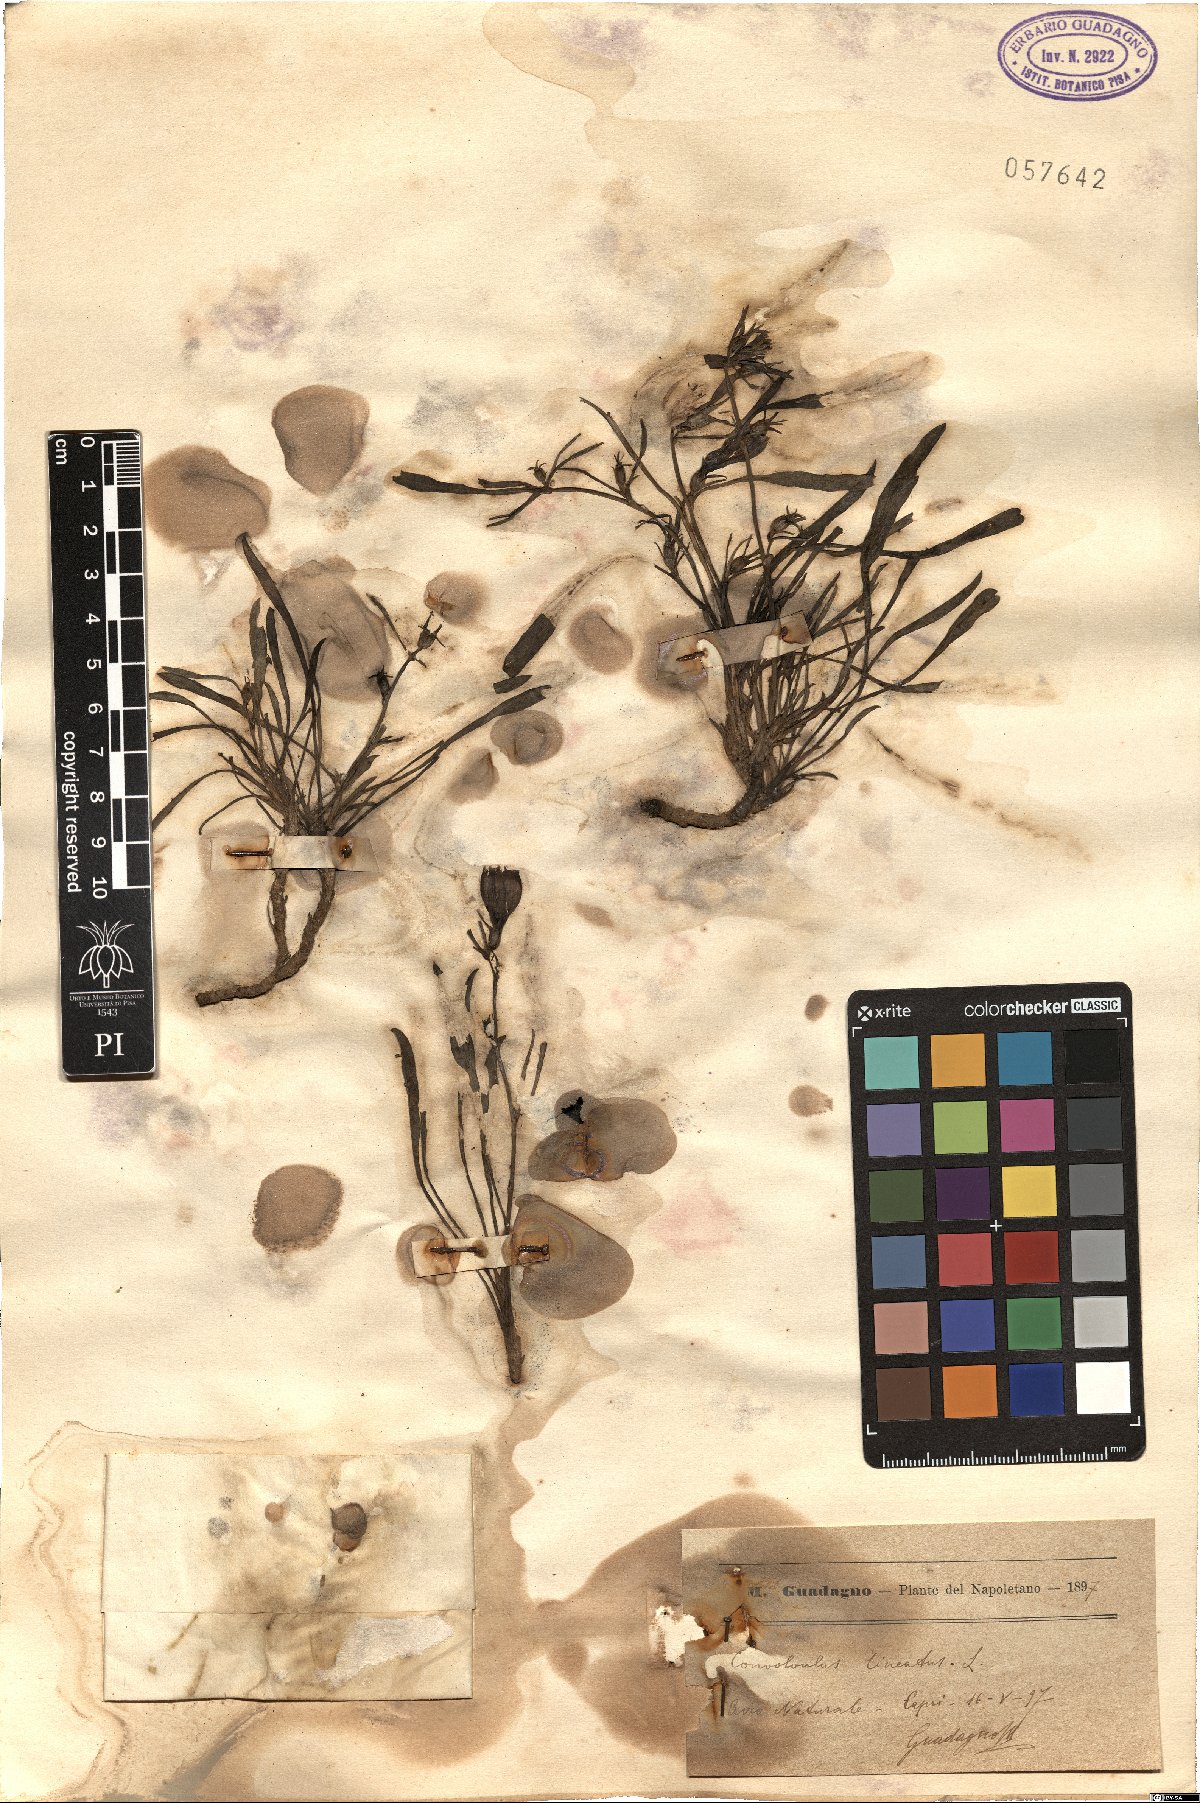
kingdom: Plantae
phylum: Tracheophyta
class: Magnoliopsida
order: Solanales
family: Convolvulaceae
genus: Convolvulus
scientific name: Convolvulus lineatus
